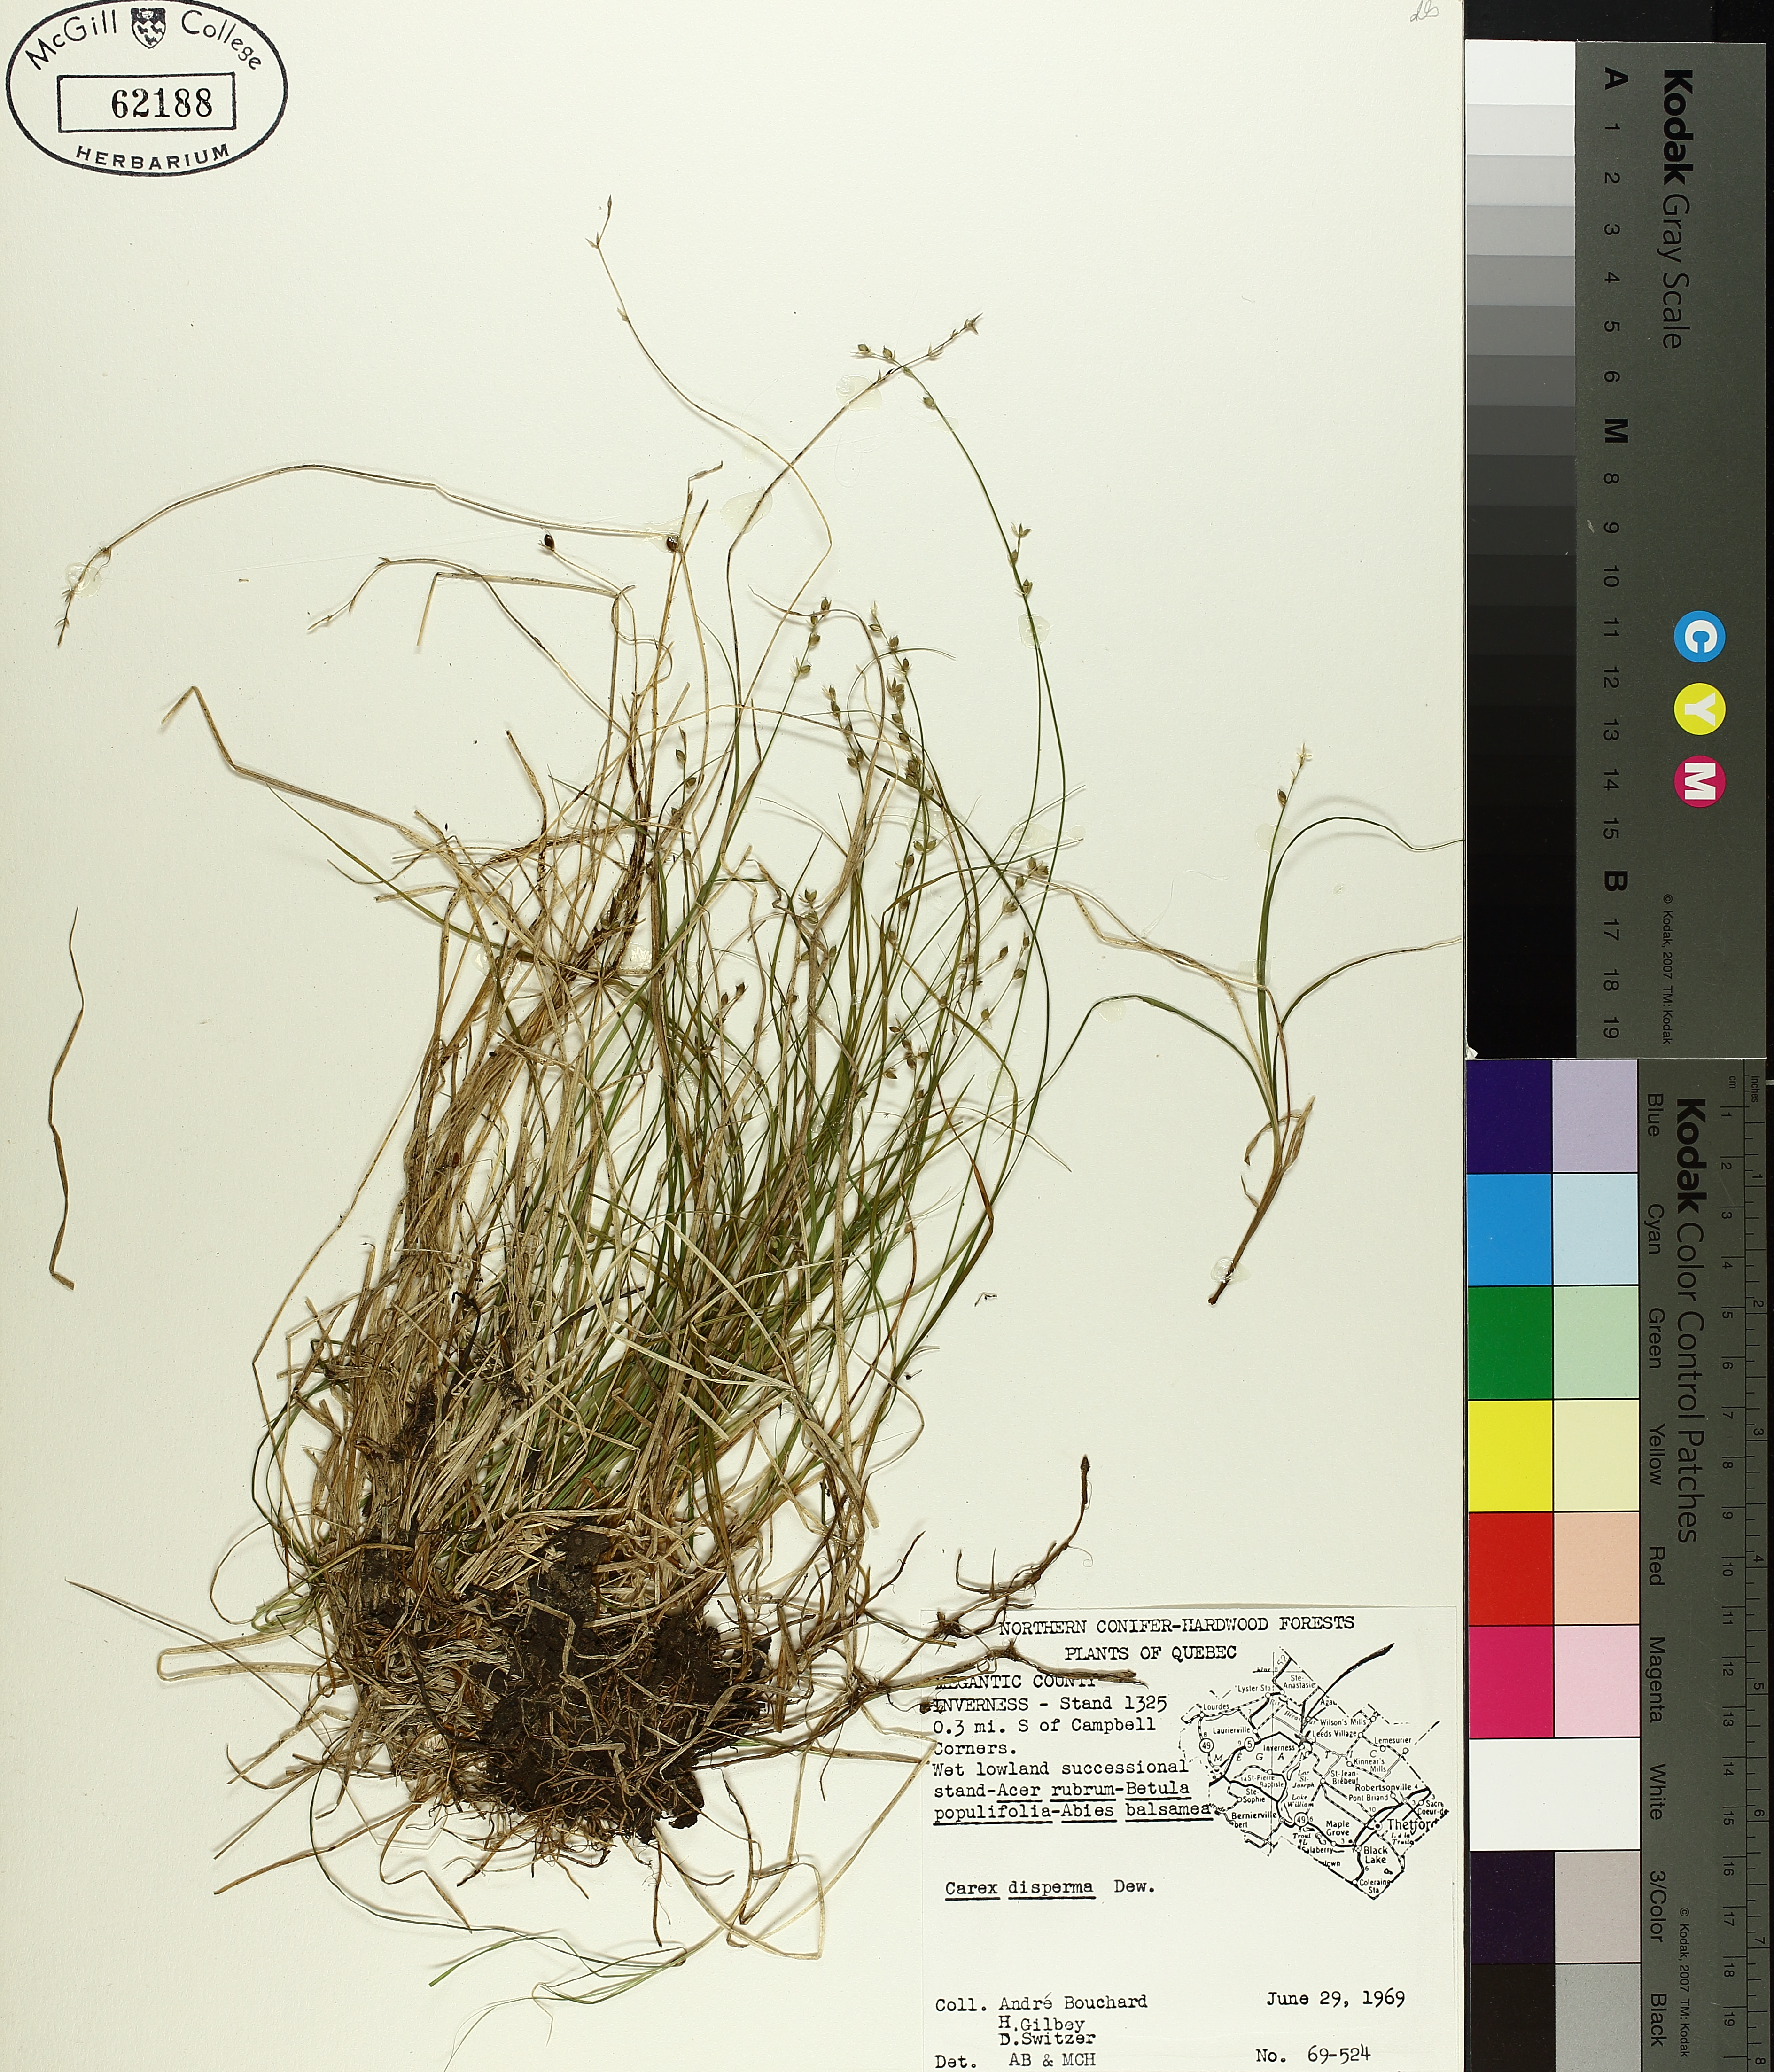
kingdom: Plantae
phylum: Tracheophyta
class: Liliopsida
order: Poales
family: Cyperaceae
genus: Carex
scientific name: Carex disperma
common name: Short-leaved sedge
